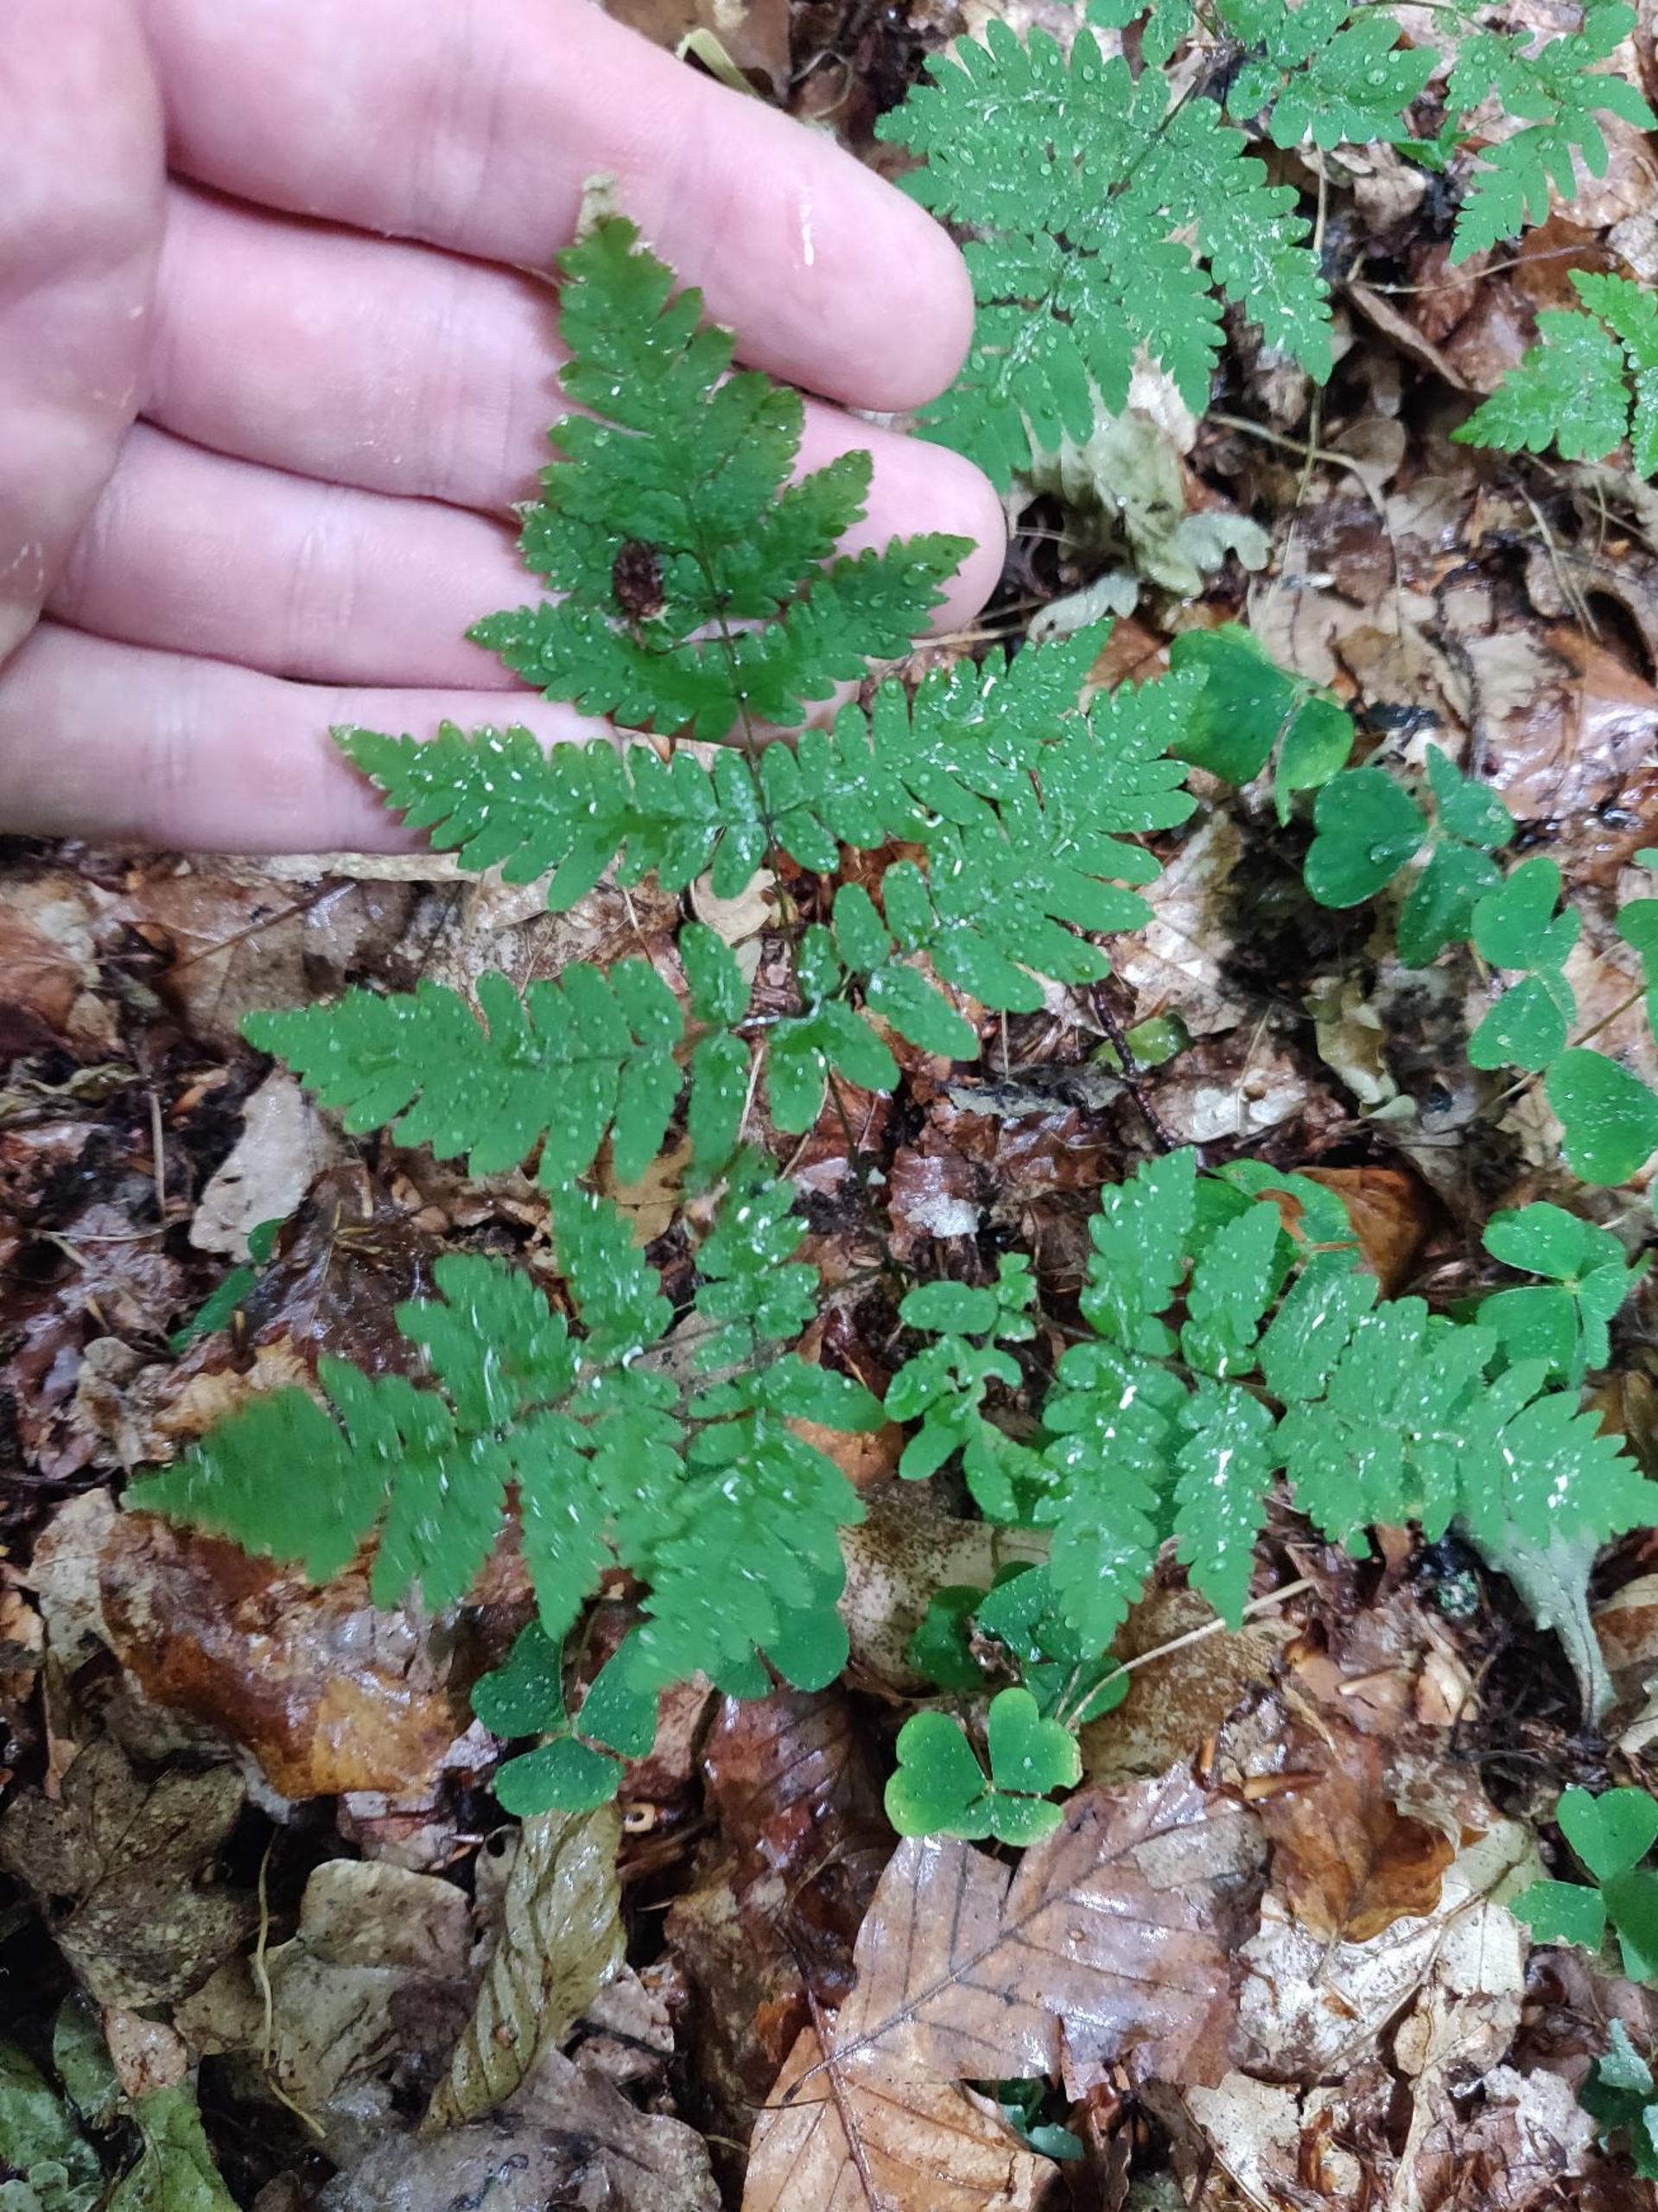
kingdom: Plantae
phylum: Tracheophyta
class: Polypodiopsida
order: Polypodiales
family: Cystopteridaceae
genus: Gymnocarpium
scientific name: Gymnocarpium dryopteris
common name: Tredelt egebregne
